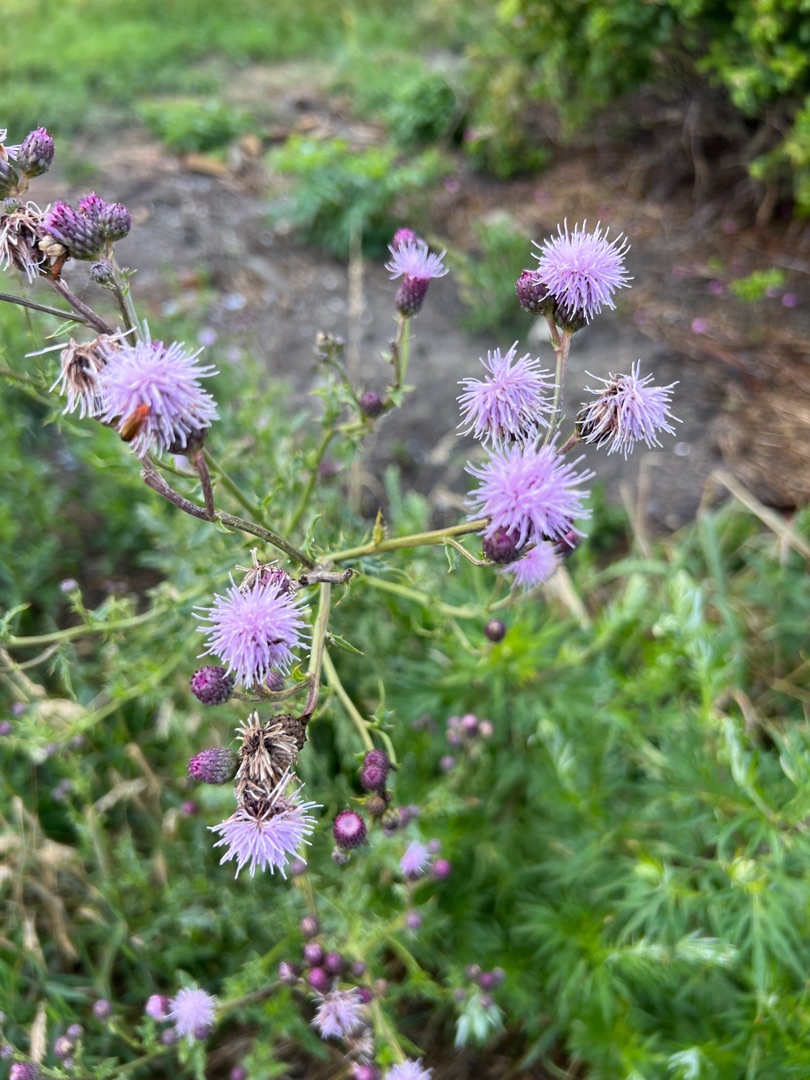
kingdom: Plantae
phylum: Tracheophyta
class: Magnoliopsida
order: Asterales
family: Asteraceae
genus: Cirsium
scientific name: Cirsium arvense
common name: Ager-tidsel
